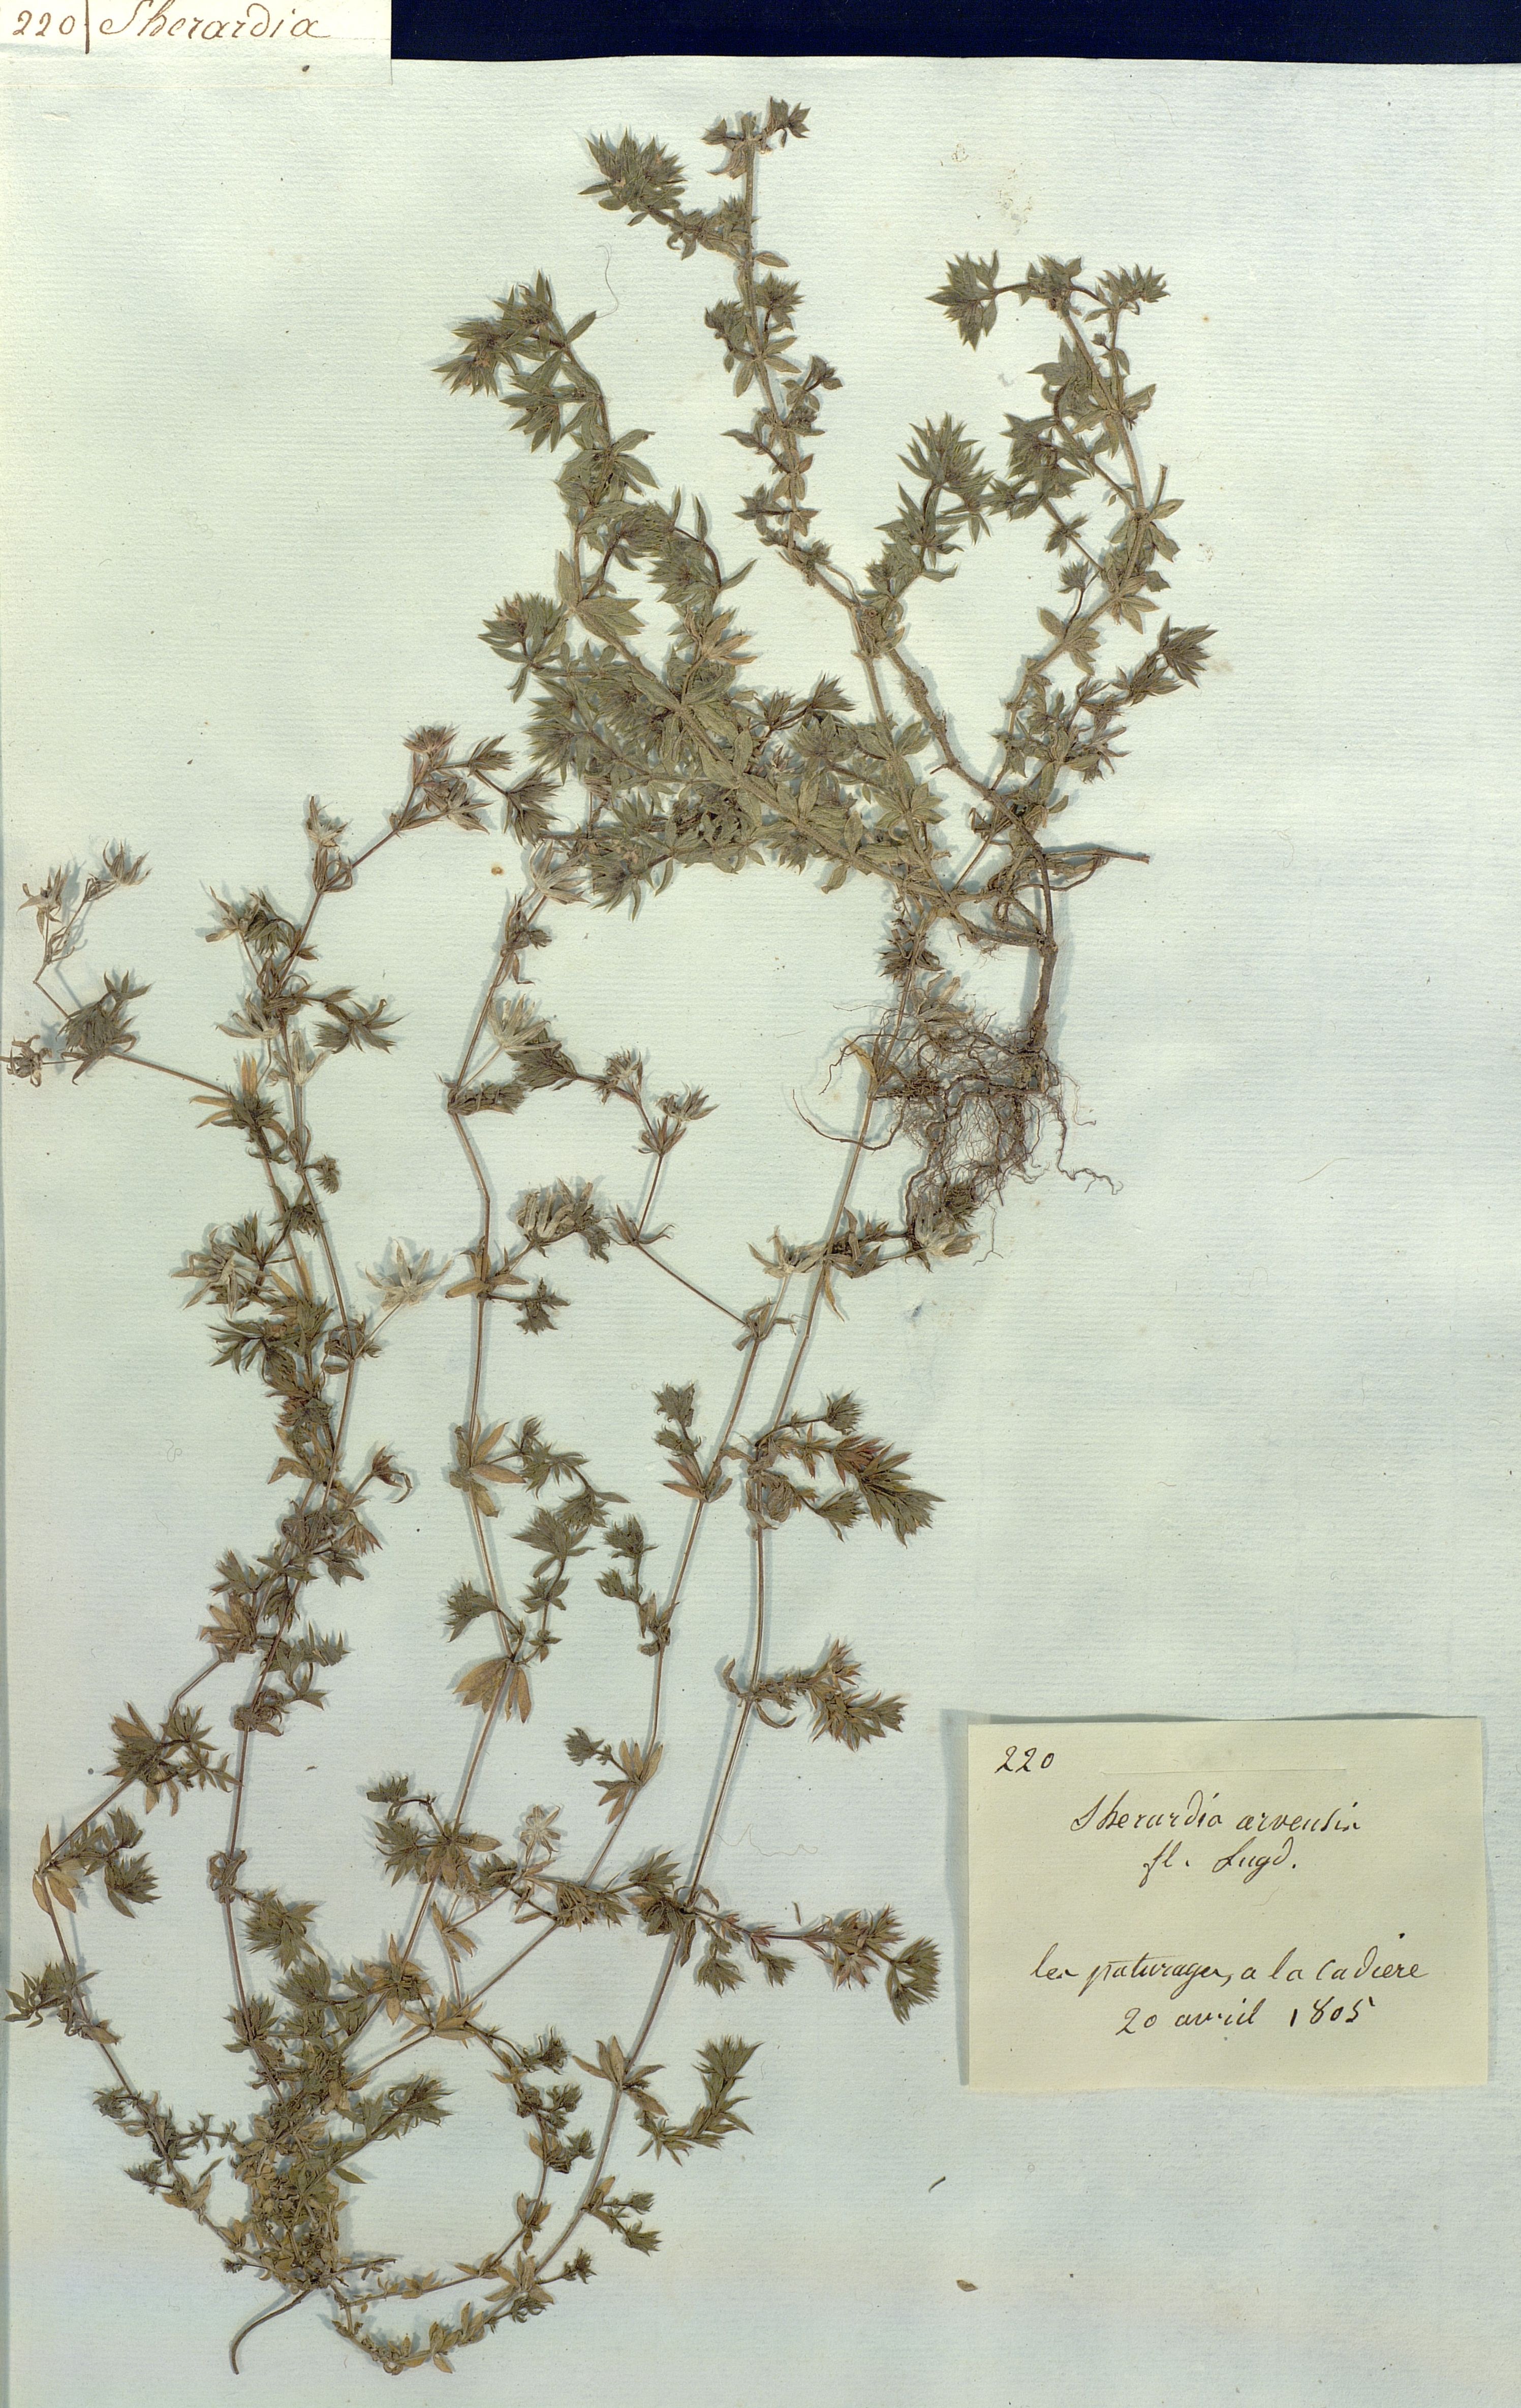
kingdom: Plantae
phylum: Tracheophyta
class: Magnoliopsida
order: Gentianales
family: Rubiaceae
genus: Sherardia
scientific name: Sherardia arvensis
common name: Field madder
